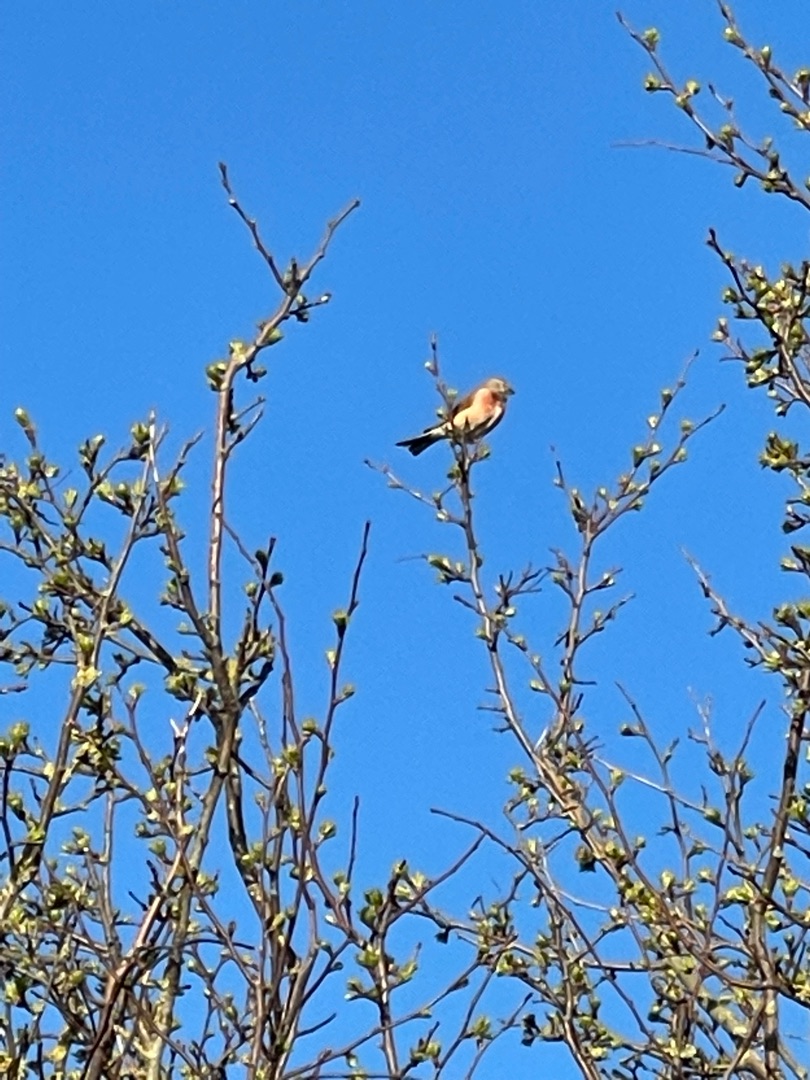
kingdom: Animalia
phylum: Chordata
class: Aves
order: Passeriformes
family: Fringillidae
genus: Linaria
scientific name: Linaria cannabina
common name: Tornirisk
